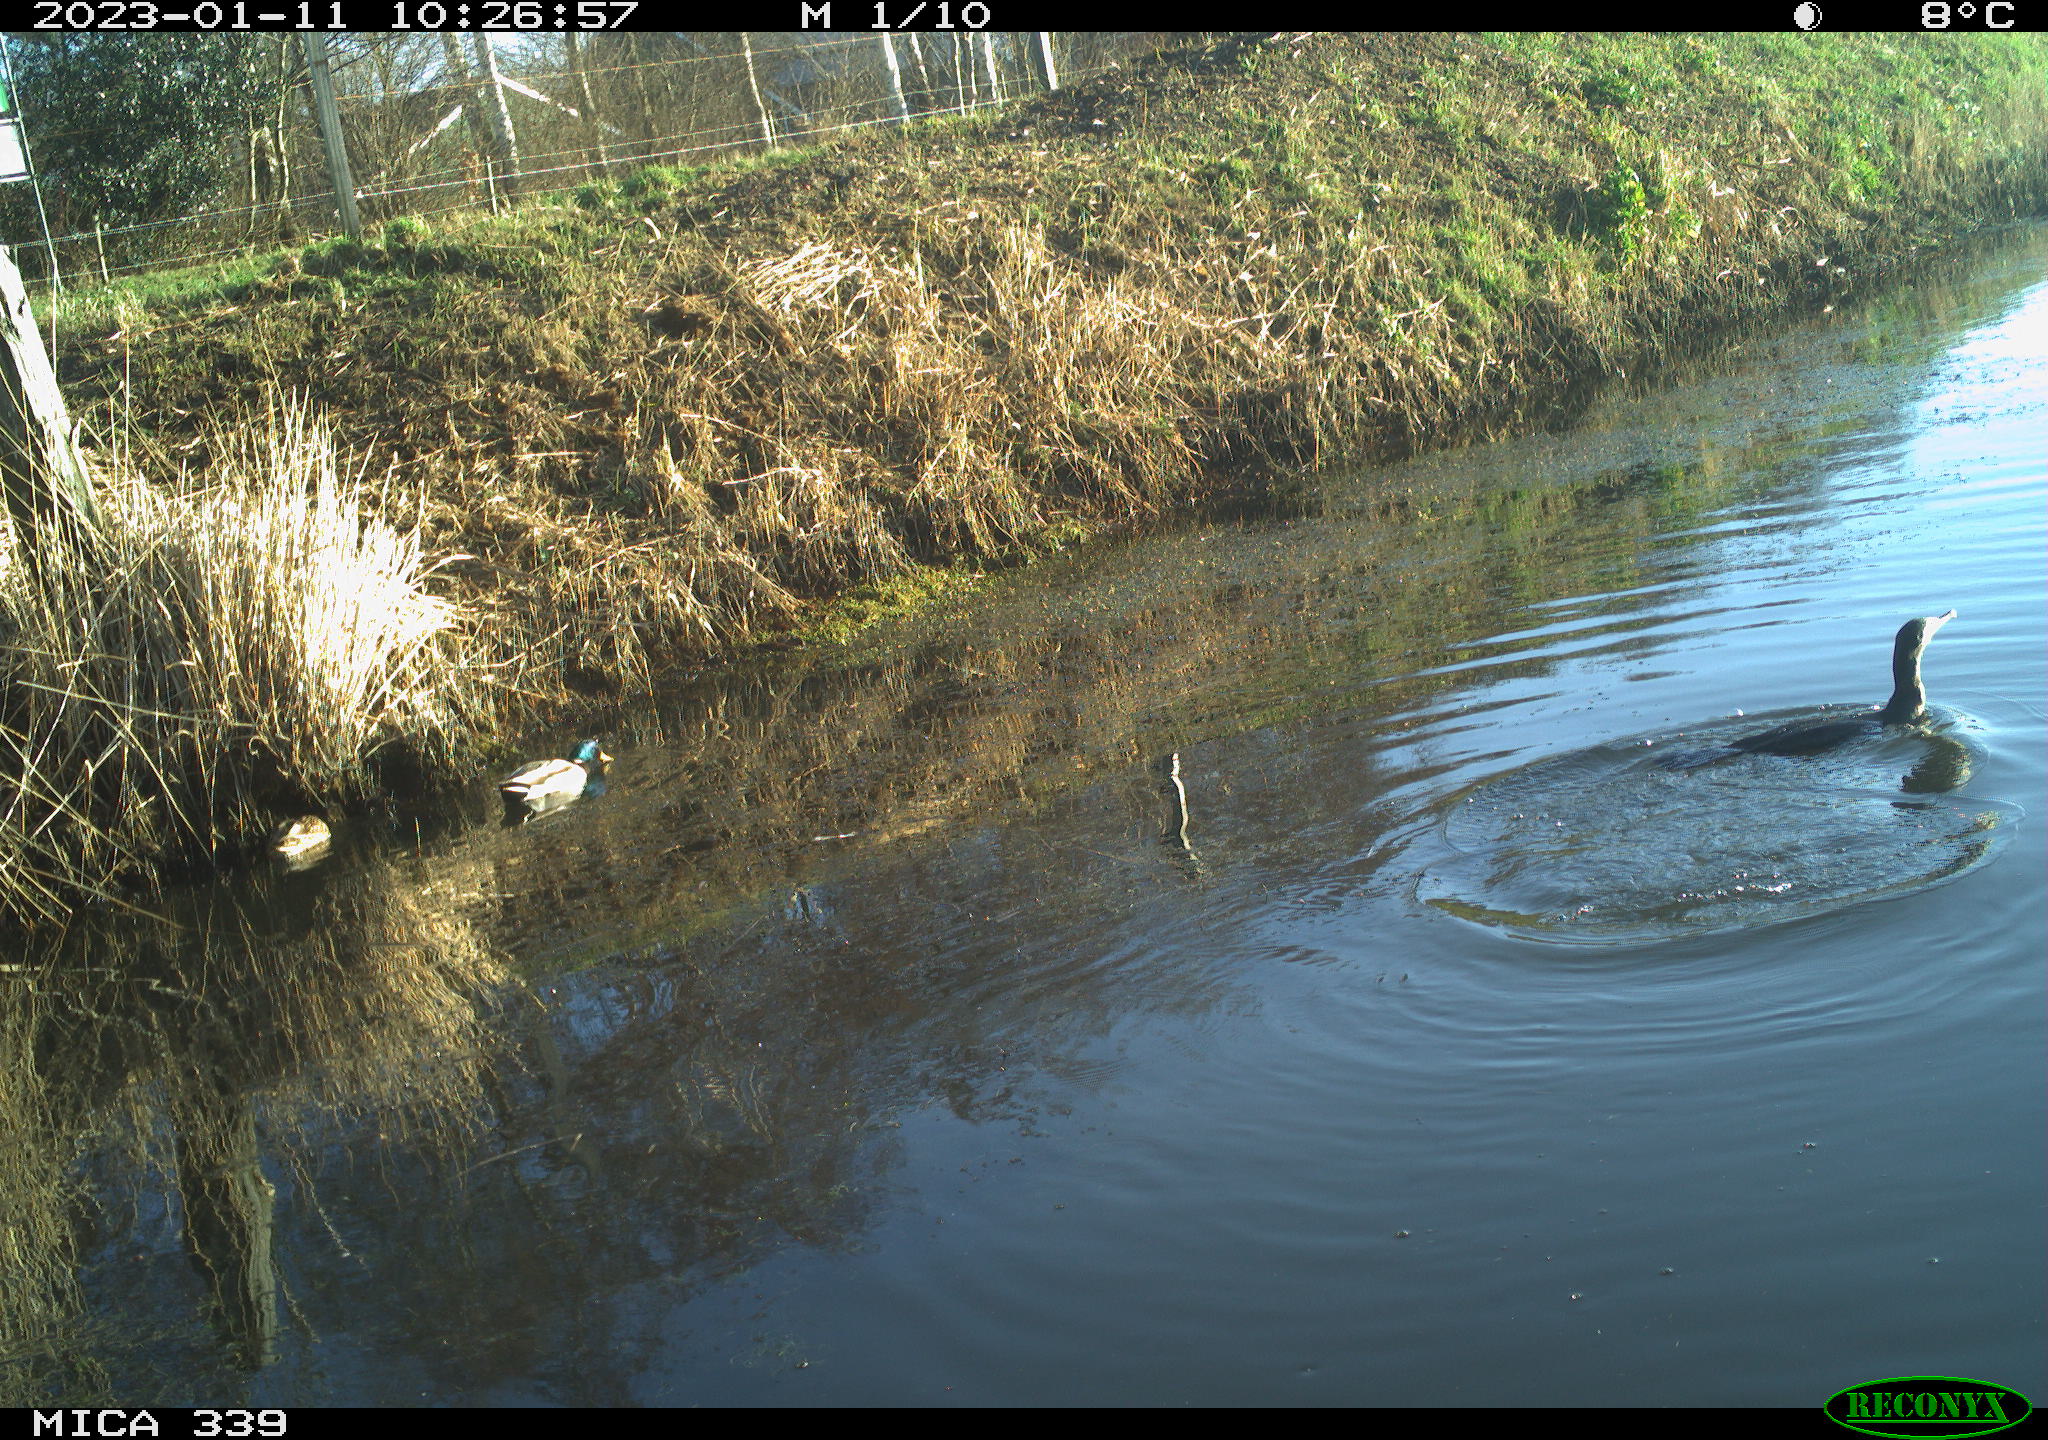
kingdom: Animalia
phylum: Chordata
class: Aves
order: Suliformes
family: Phalacrocoracidae
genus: Phalacrocorax
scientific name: Phalacrocorax carbo
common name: Great cormorant
